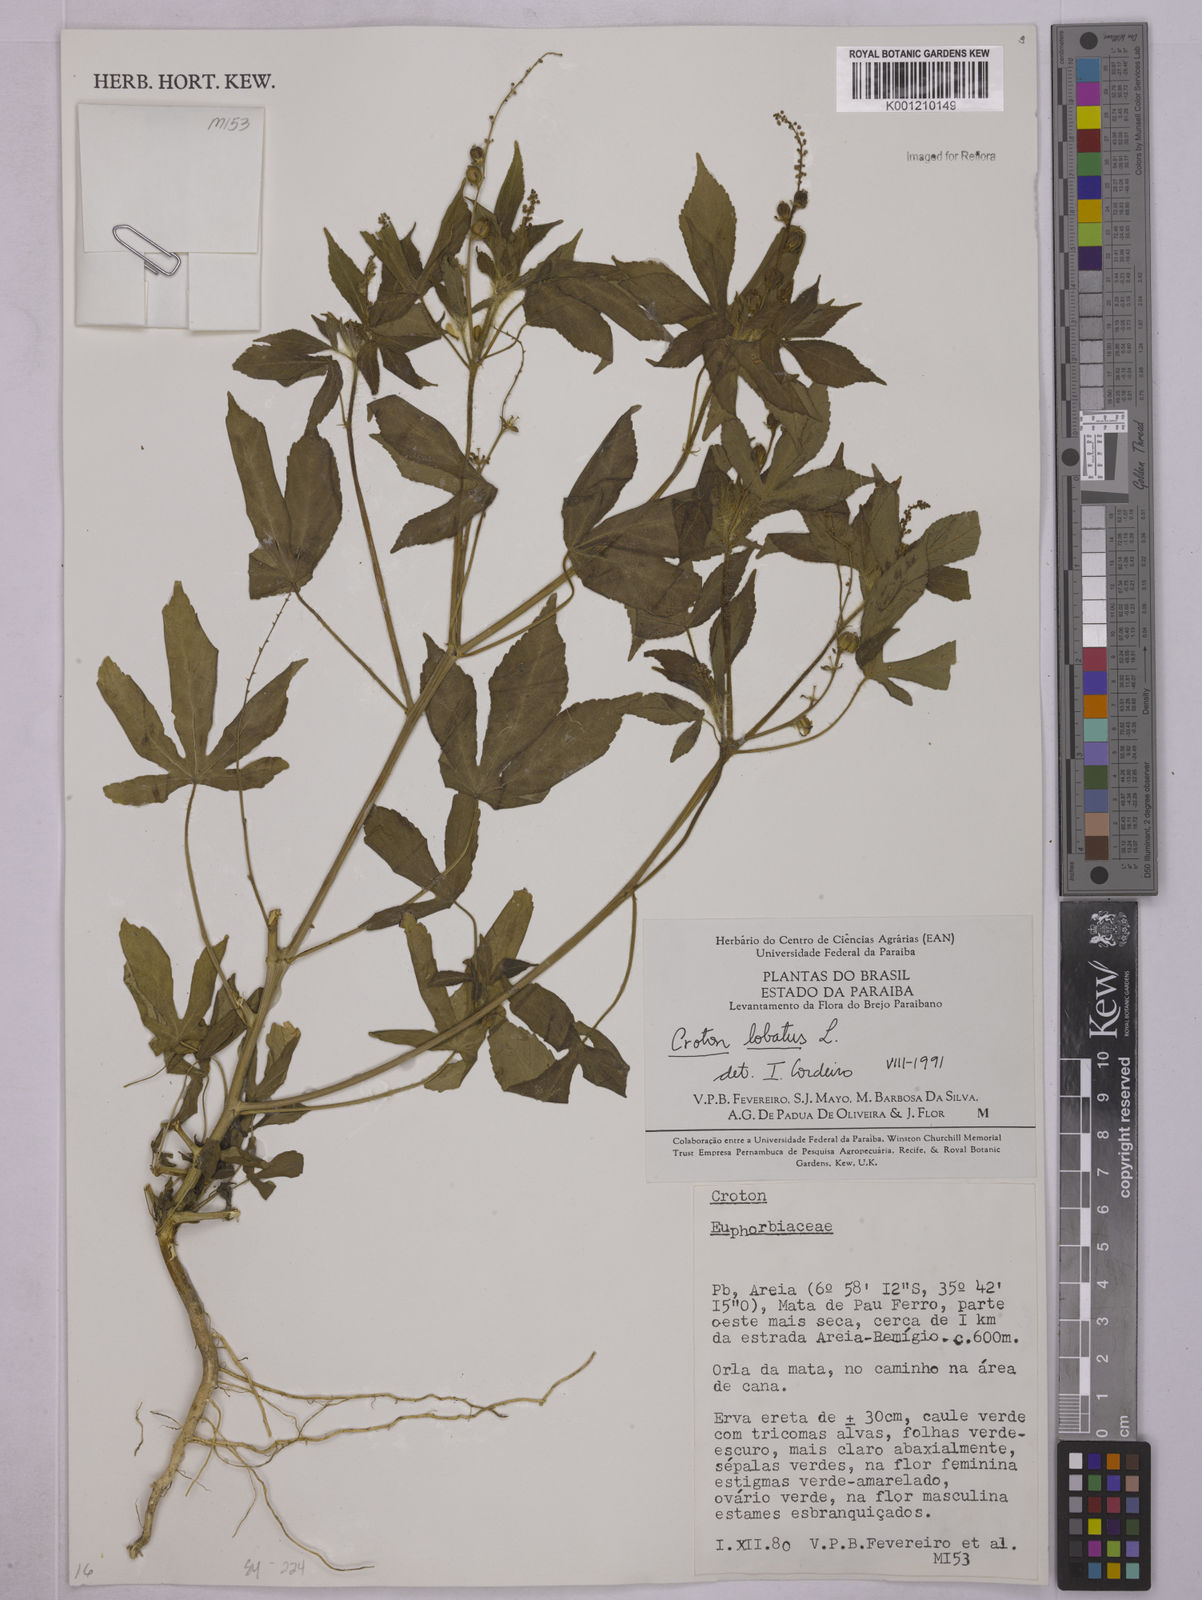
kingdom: Plantae
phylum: Tracheophyta
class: Magnoliopsida
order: Malpighiales
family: Euphorbiaceae
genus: Astraea
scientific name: Astraea lobata
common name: Lobed croton
